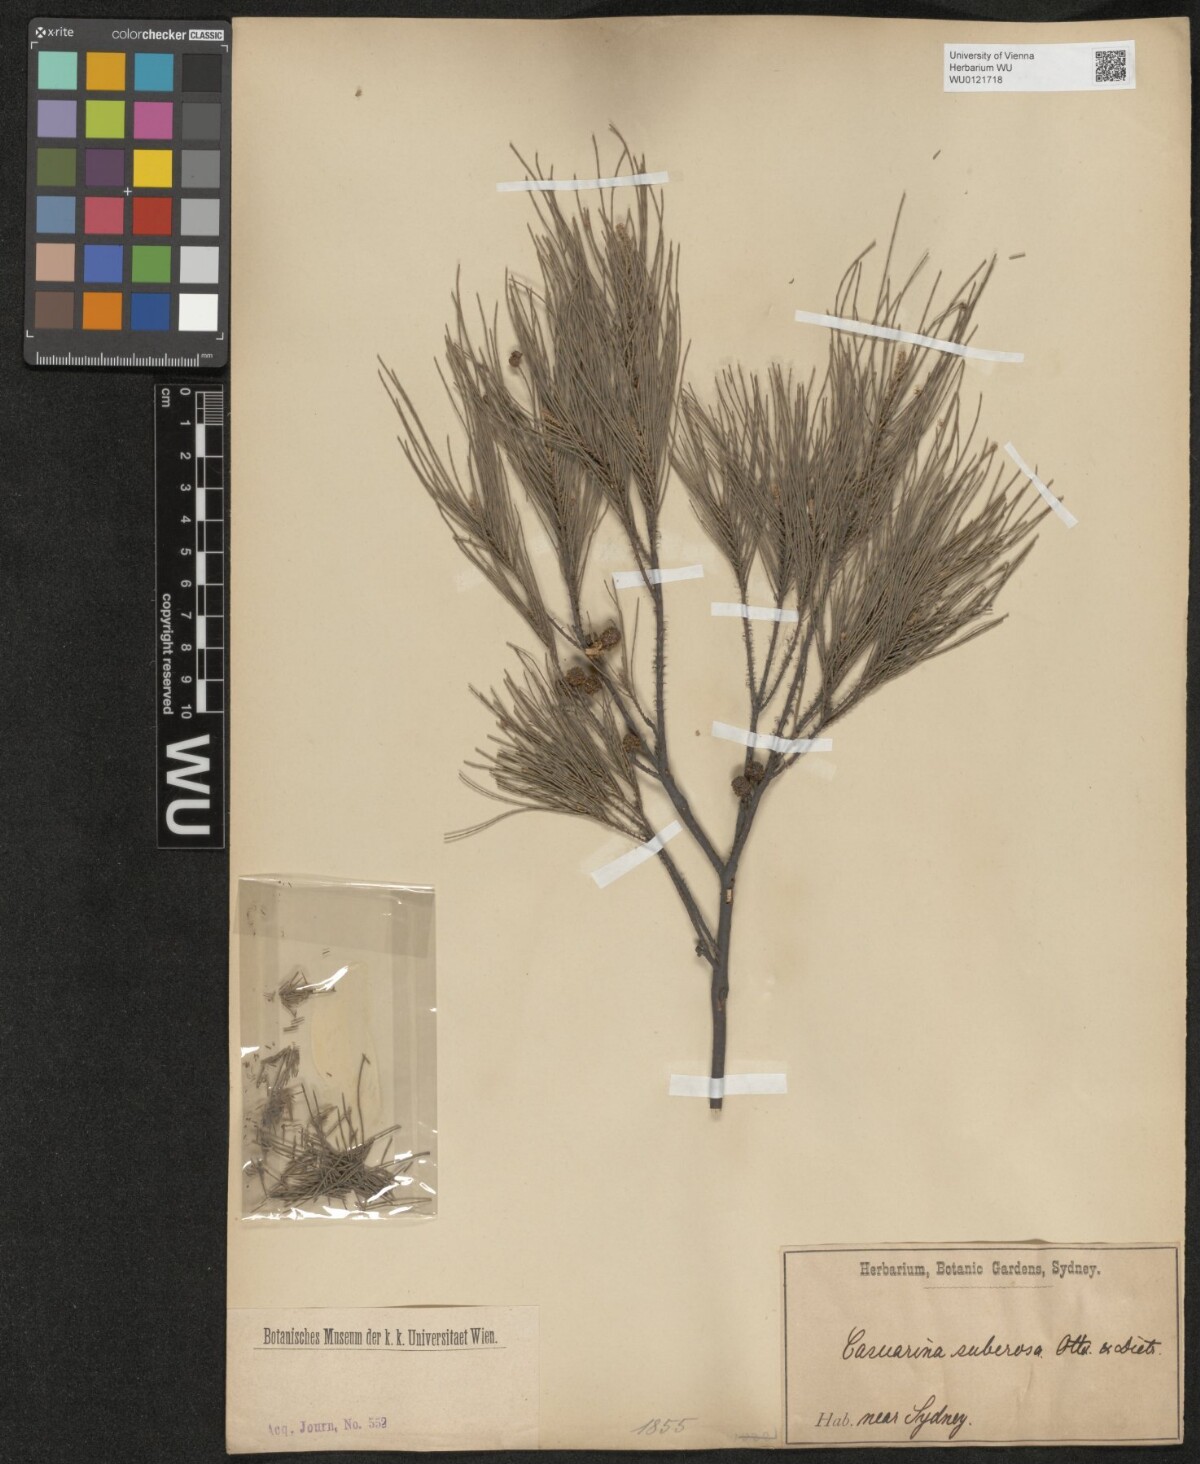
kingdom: Plantae
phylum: Tracheophyta
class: Magnoliopsida
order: Fagales
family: Casuarinaceae
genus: Allocasuarina
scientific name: Allocasuarina littoralis
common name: Black she-oak
